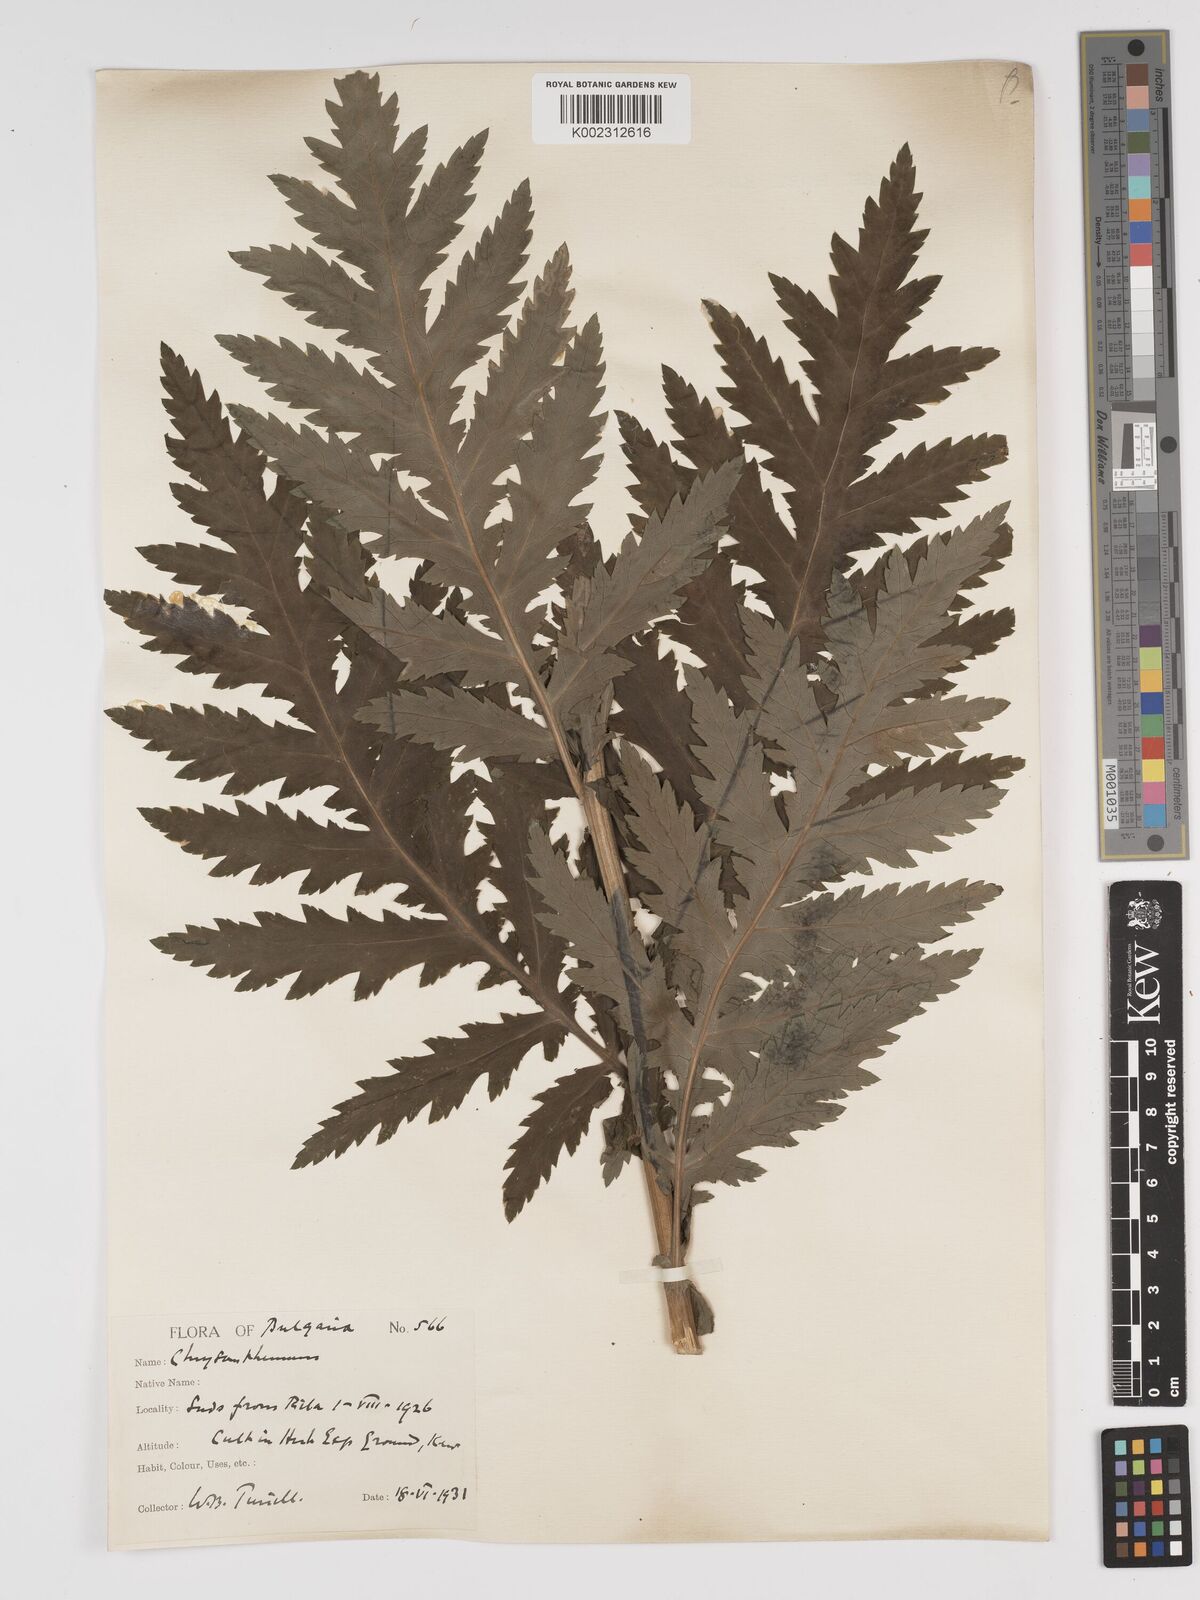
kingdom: Plantae
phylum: Tracheophyta
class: Magnoliopsida
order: Asterales
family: Asteraceae
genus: Tanacetum
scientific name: Tanacetum macrophyllum
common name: Rayed tansy
